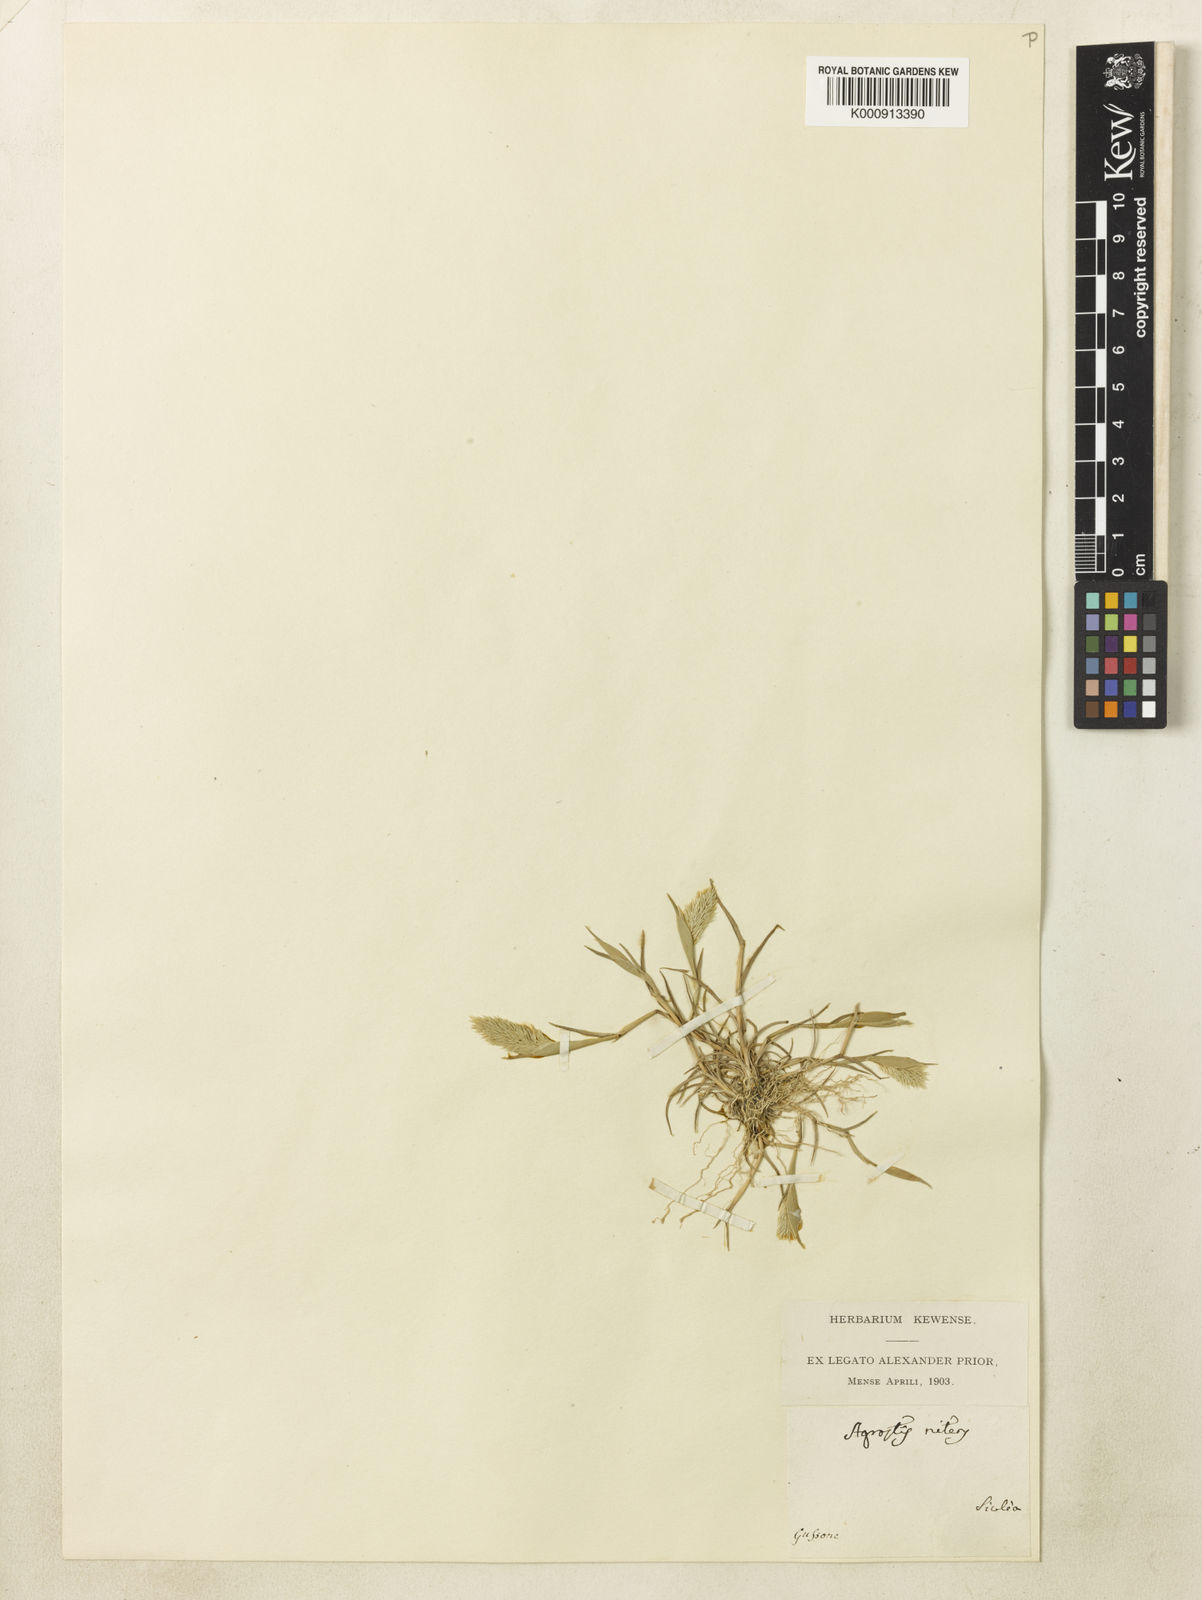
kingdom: Plantae
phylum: Tracheophyta
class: Liliopsida
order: Poales
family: Poaceae
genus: Triplachne
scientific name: Triplachne nitens
